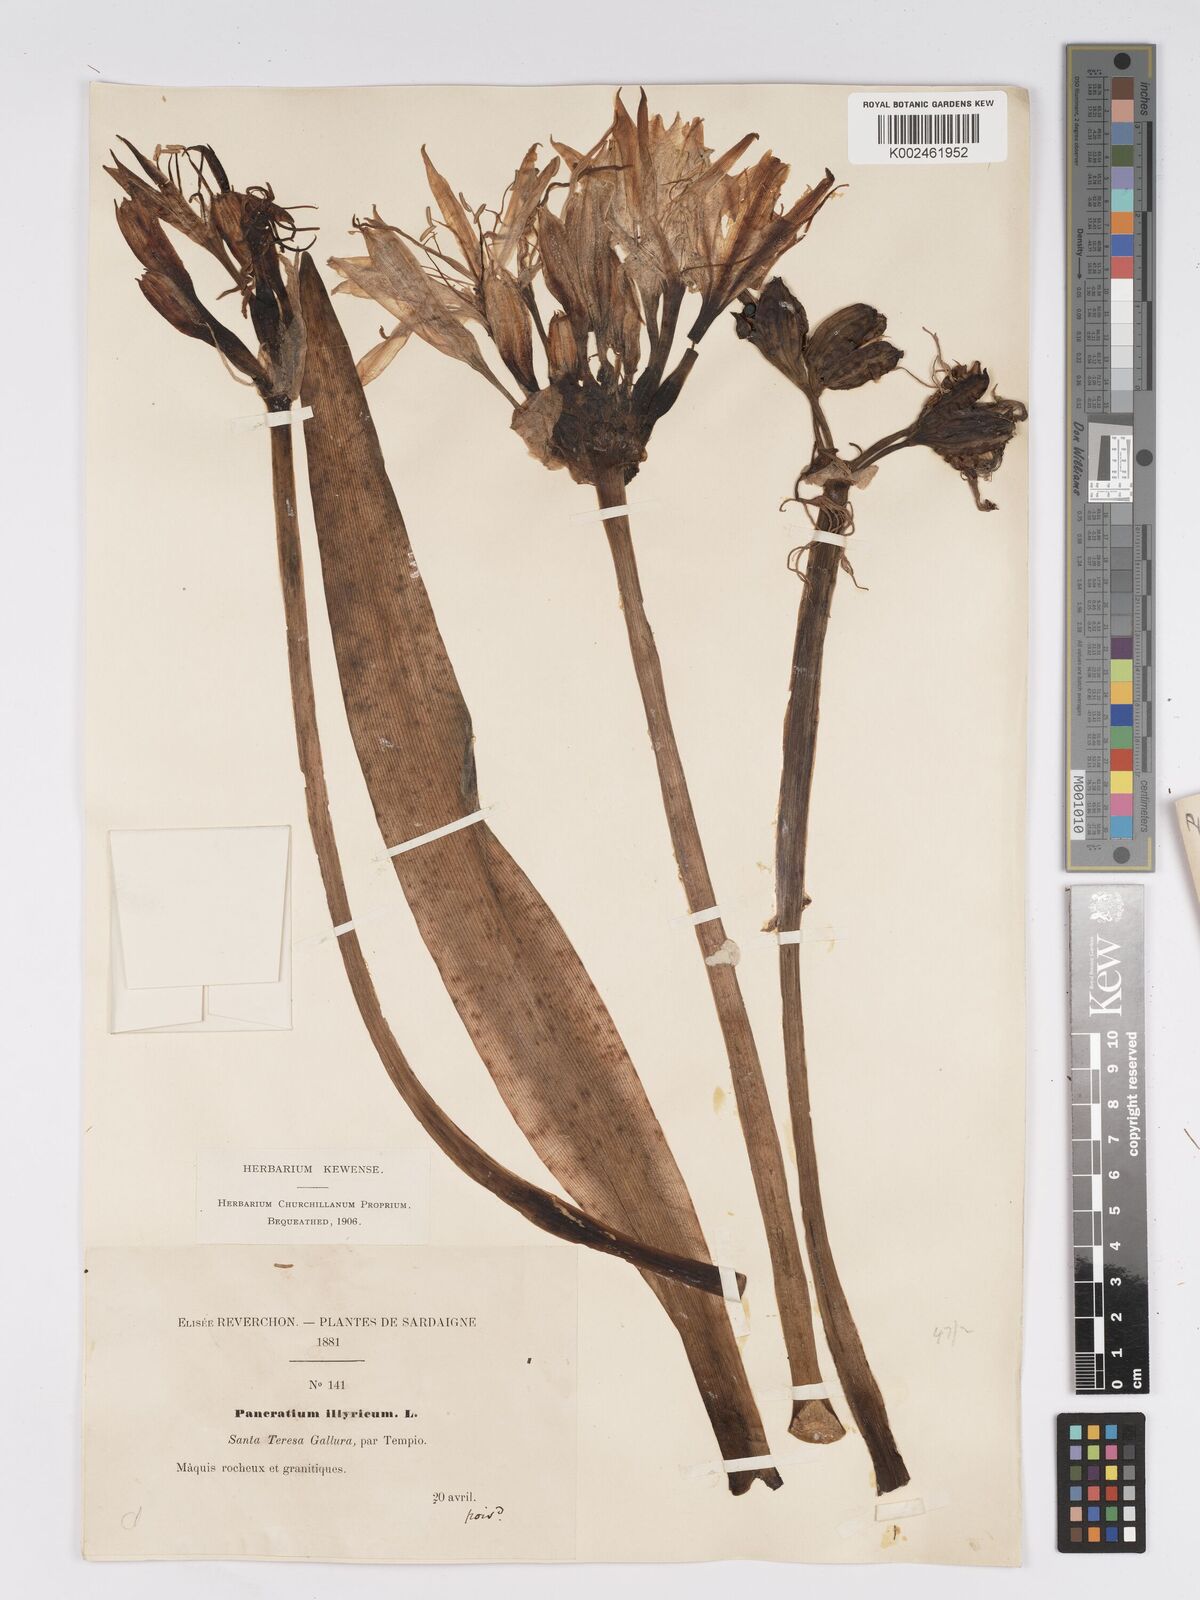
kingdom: Plantae
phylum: Tracheophyta
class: Liliopsida
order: Asparagales
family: Amaryllidaceae
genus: Pancratium
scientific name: Pancratium illyricum
